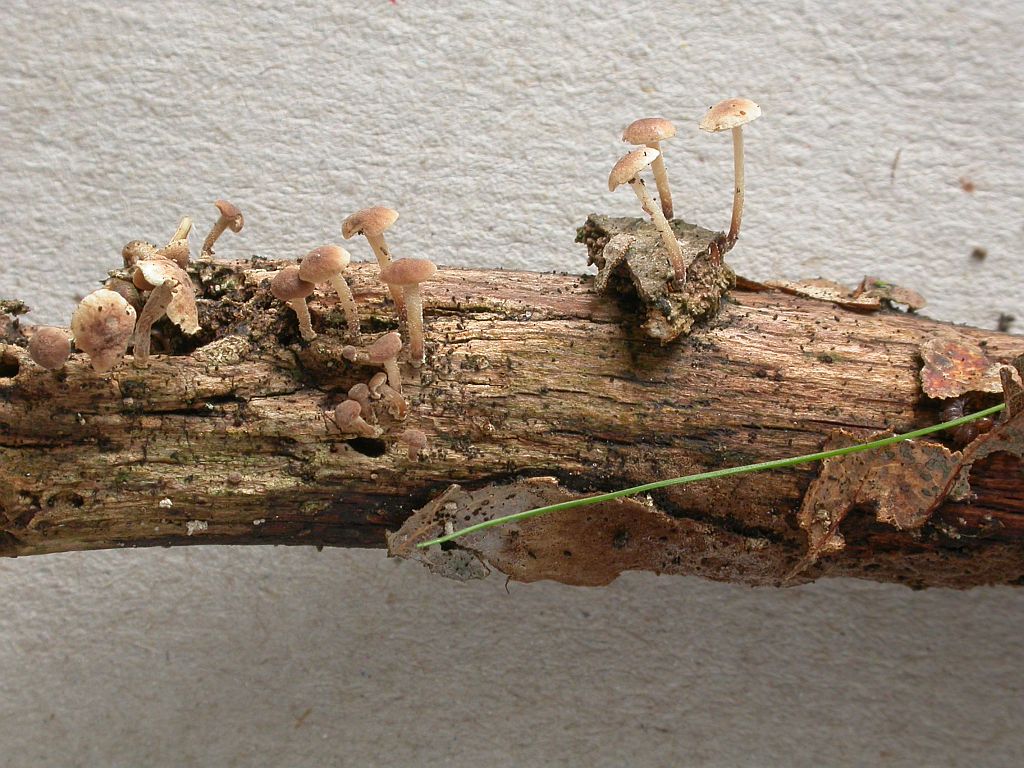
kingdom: Fungi
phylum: Basidiomycota
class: Agaricomycetes
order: Agaricales
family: Omphalotaceae
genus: Collybiopsis
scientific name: Collybiopsis ramealis
